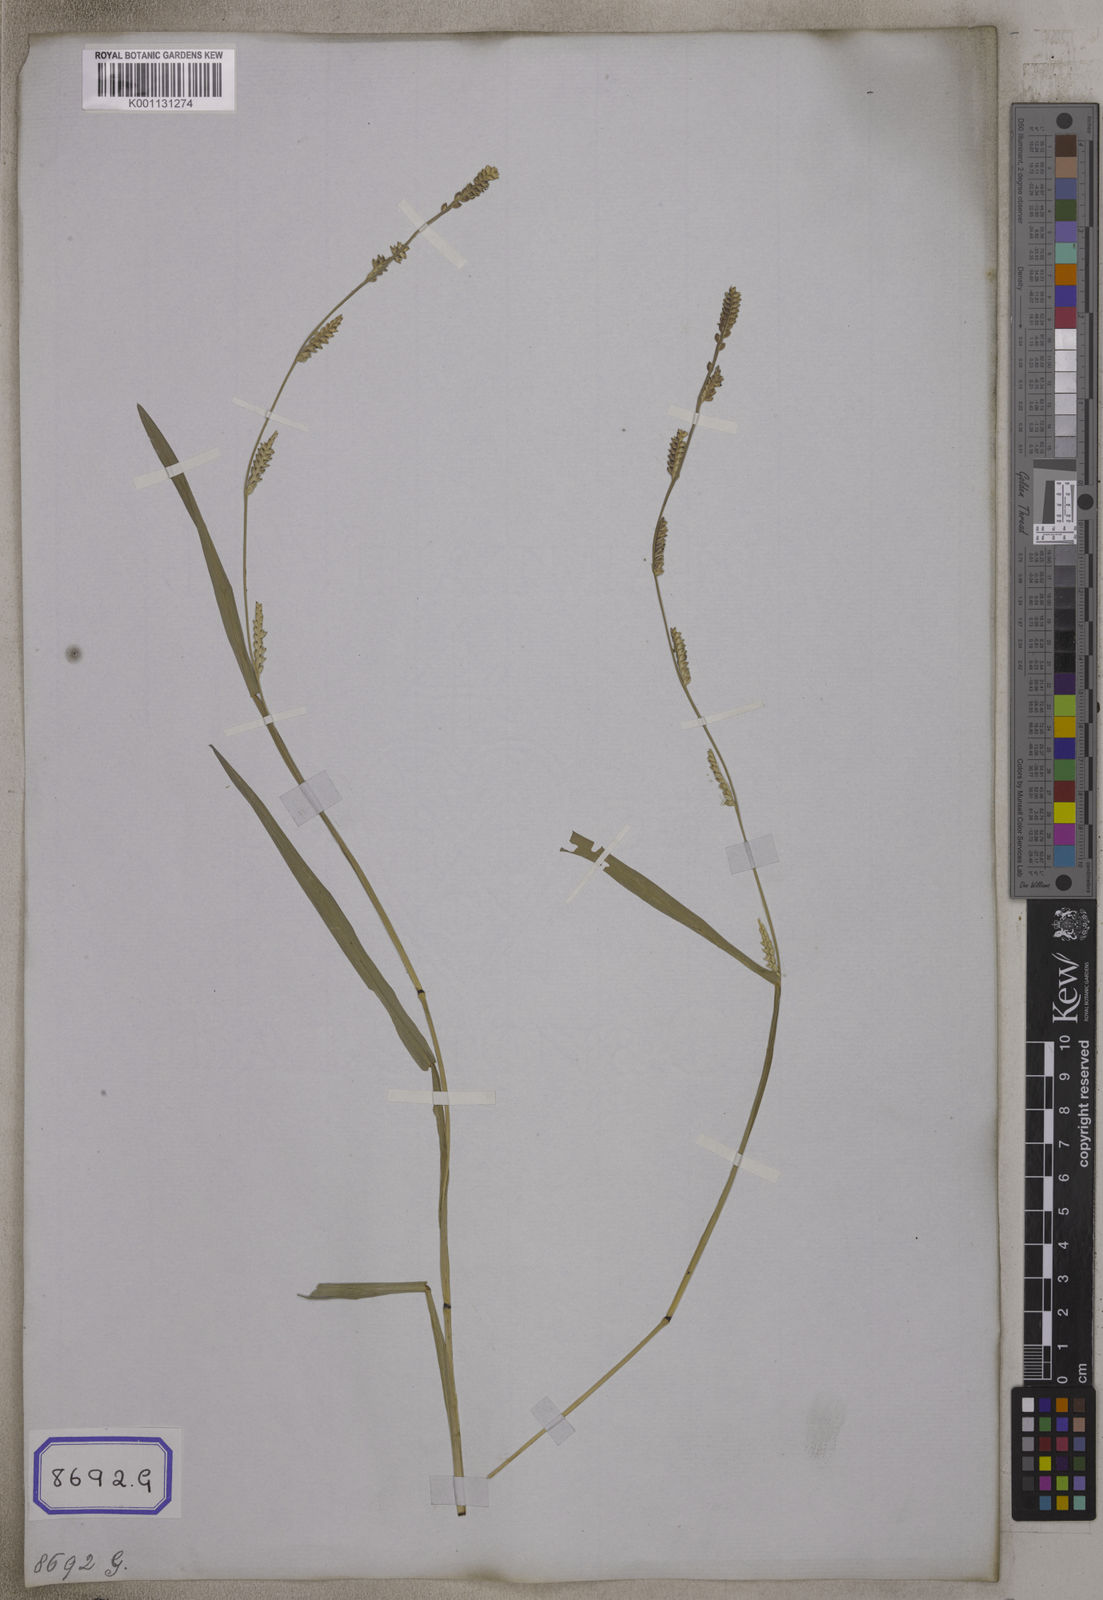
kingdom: Plantae
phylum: Tracheophyta
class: Liliopsida
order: Poales
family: Poaceae
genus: Setaria
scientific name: Setaria flavida
